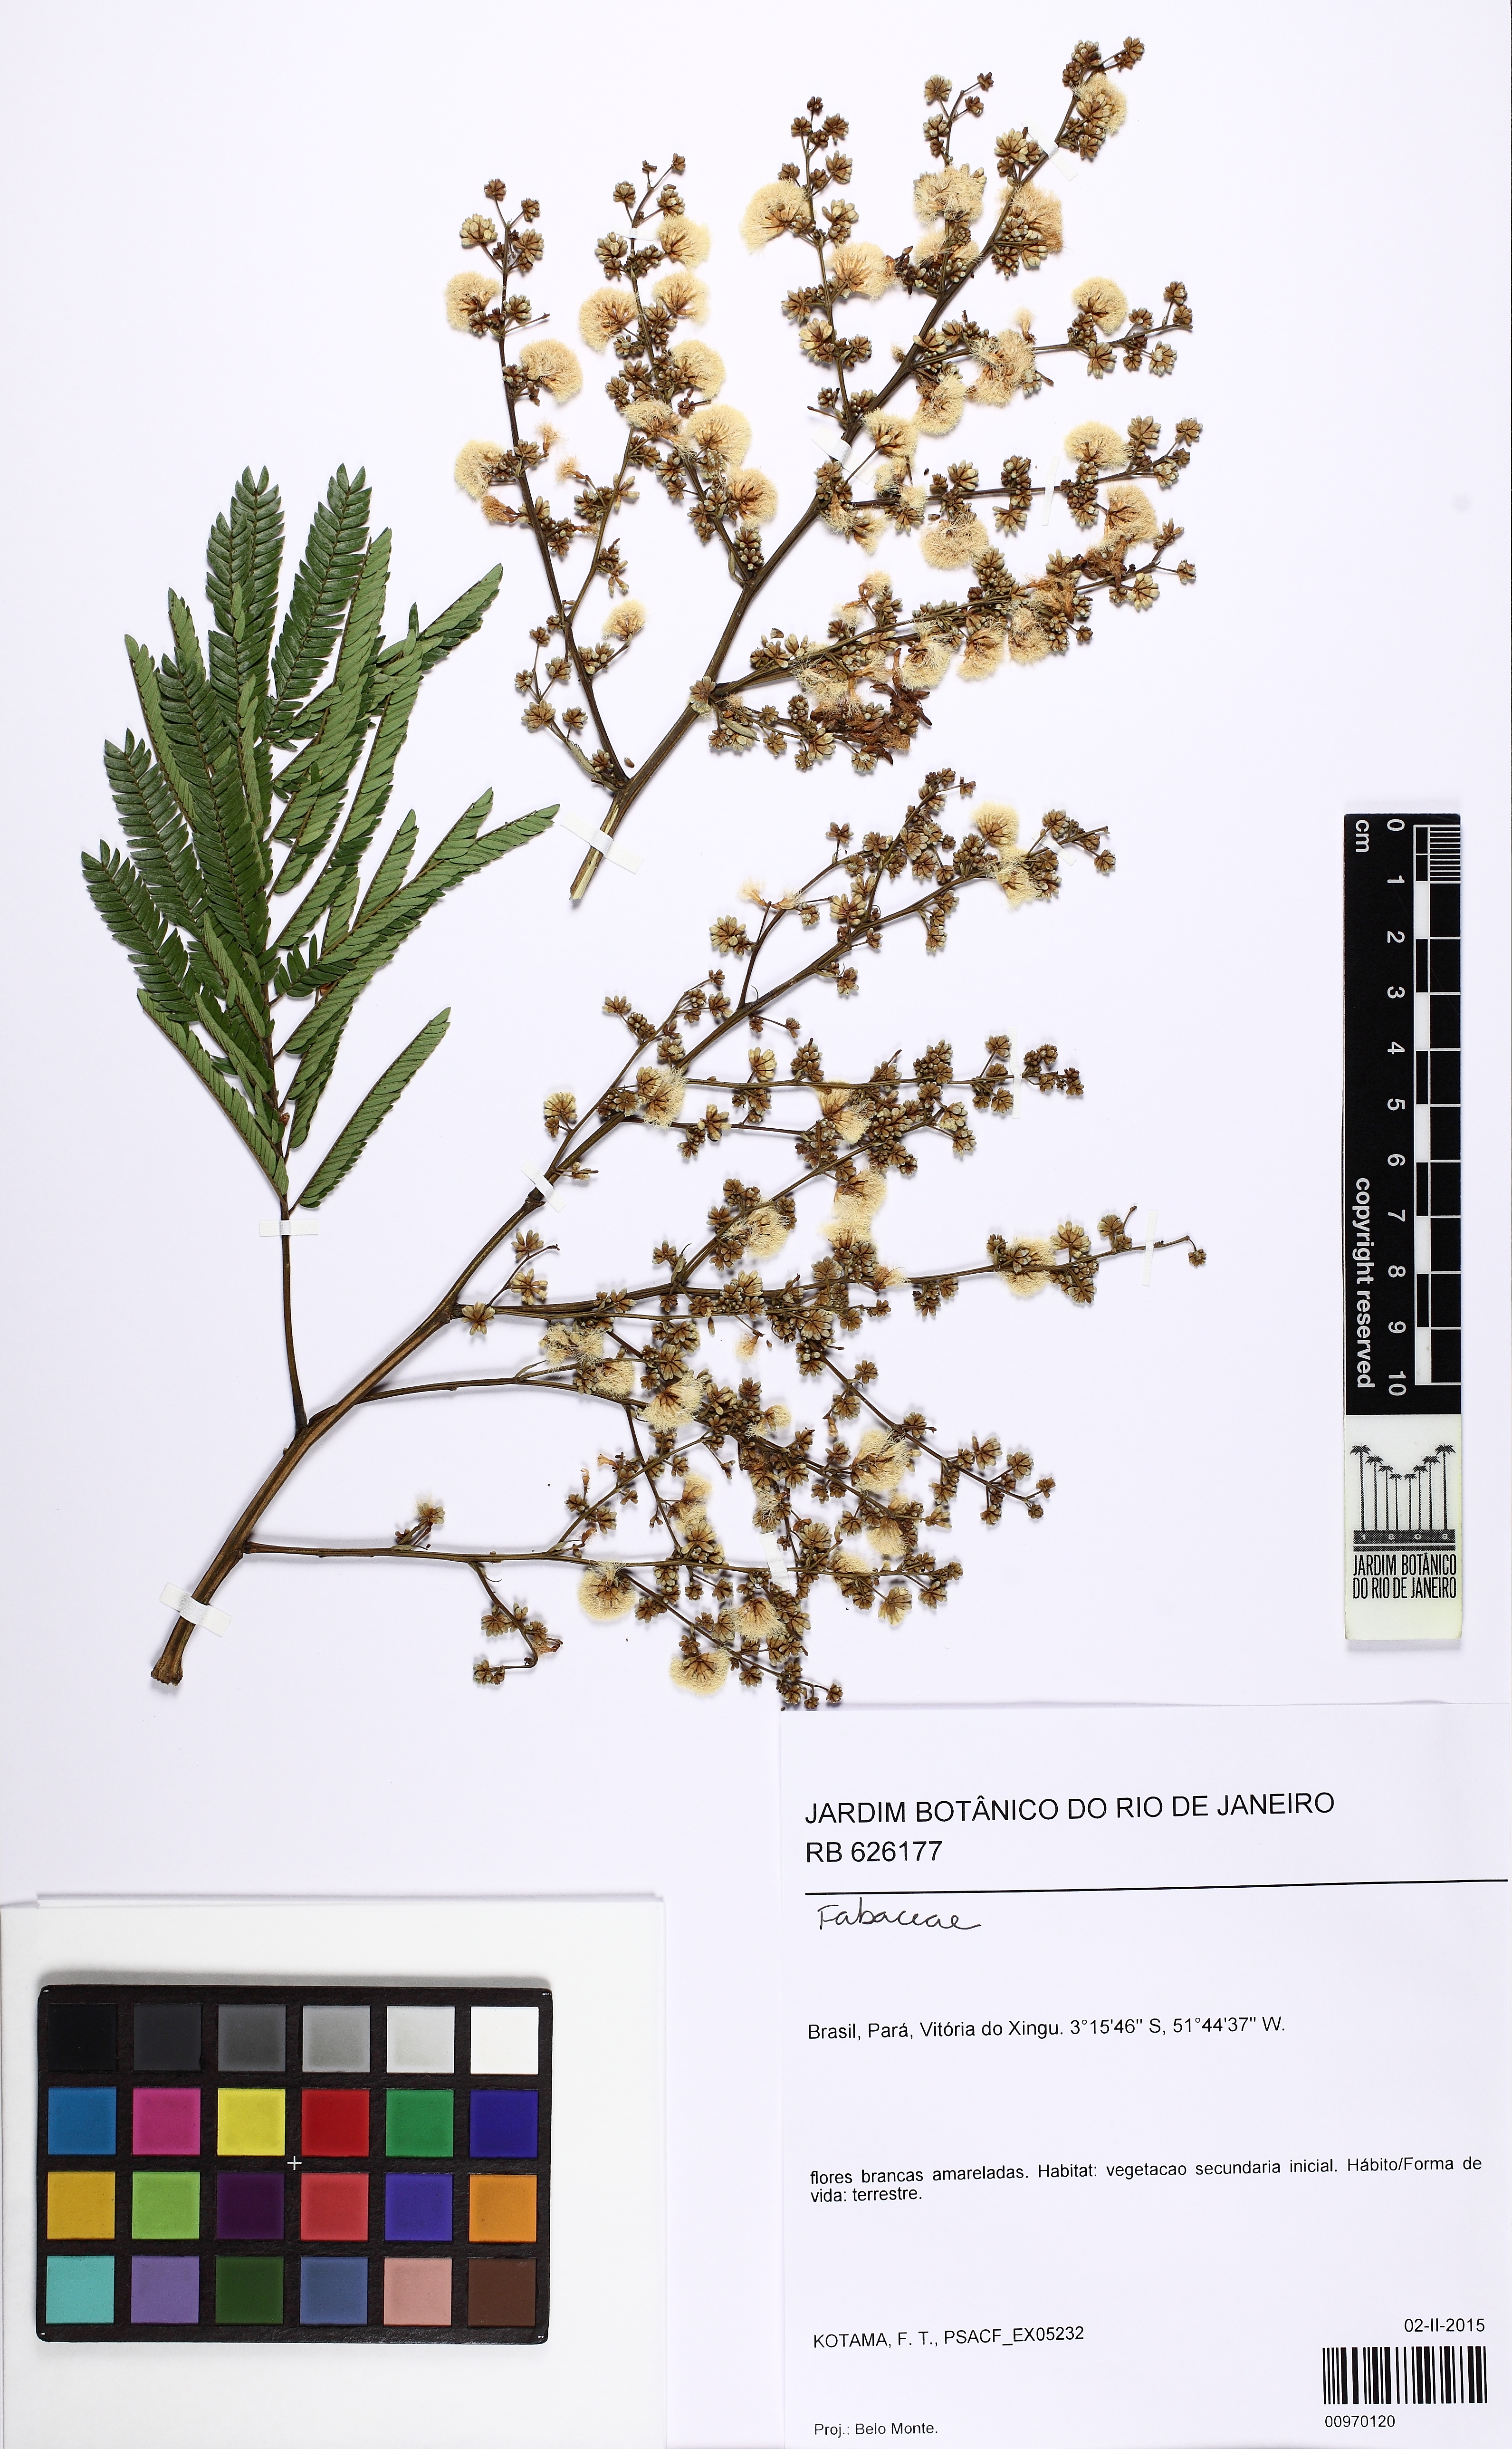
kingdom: Plantae
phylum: Tracheophyta
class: Magnoliopsida
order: Fabales
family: Fabaceae
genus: Senegalia
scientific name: Senegalia loretensis
